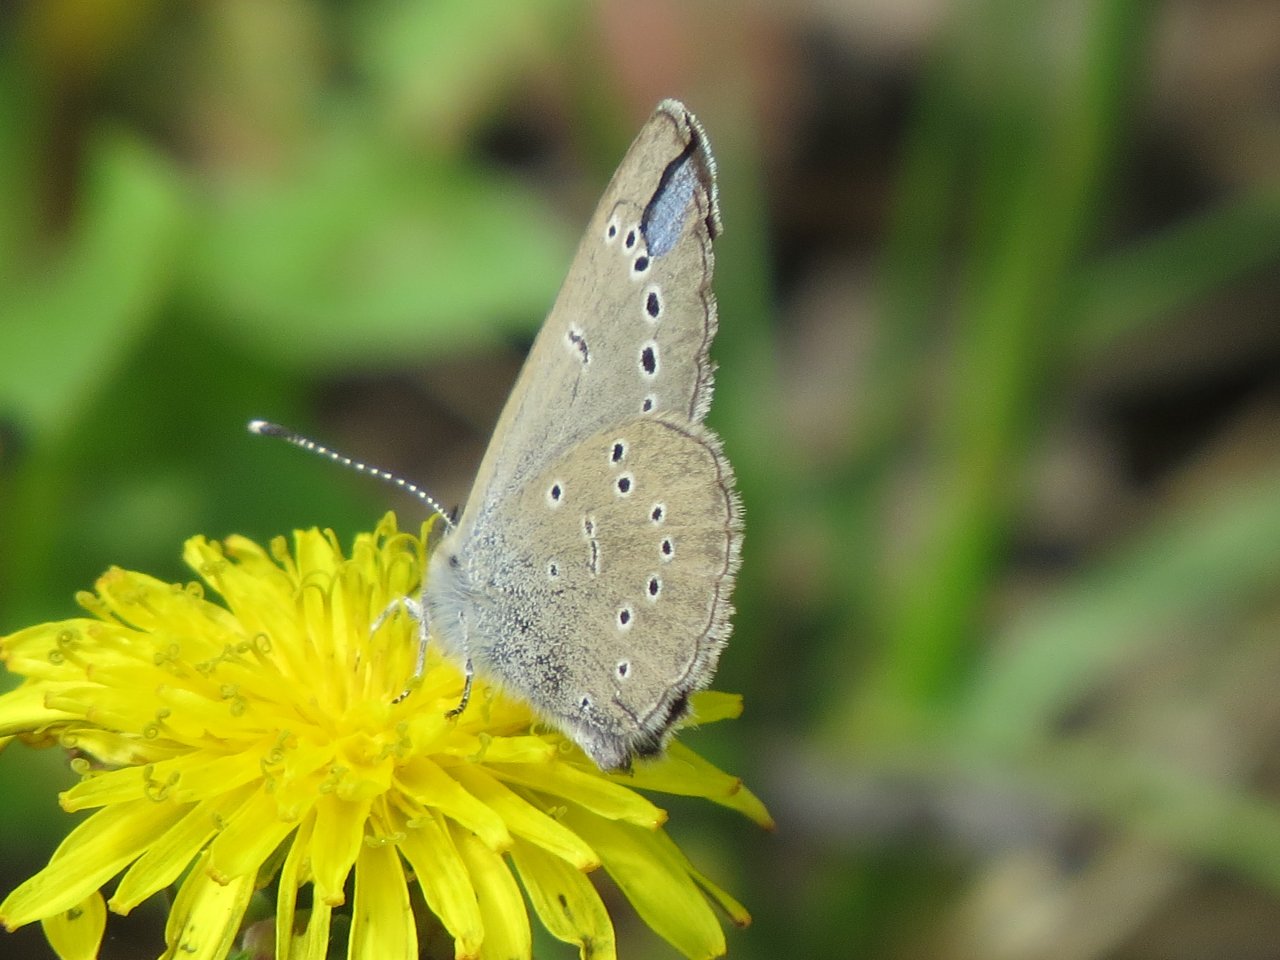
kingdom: Animalia
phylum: Arthropoda
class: Insecta
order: Lepidoptera
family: Lycaenidae
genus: Glaucopsyche
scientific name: Glaucopsyche lygdamus
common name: Silvery Blue
